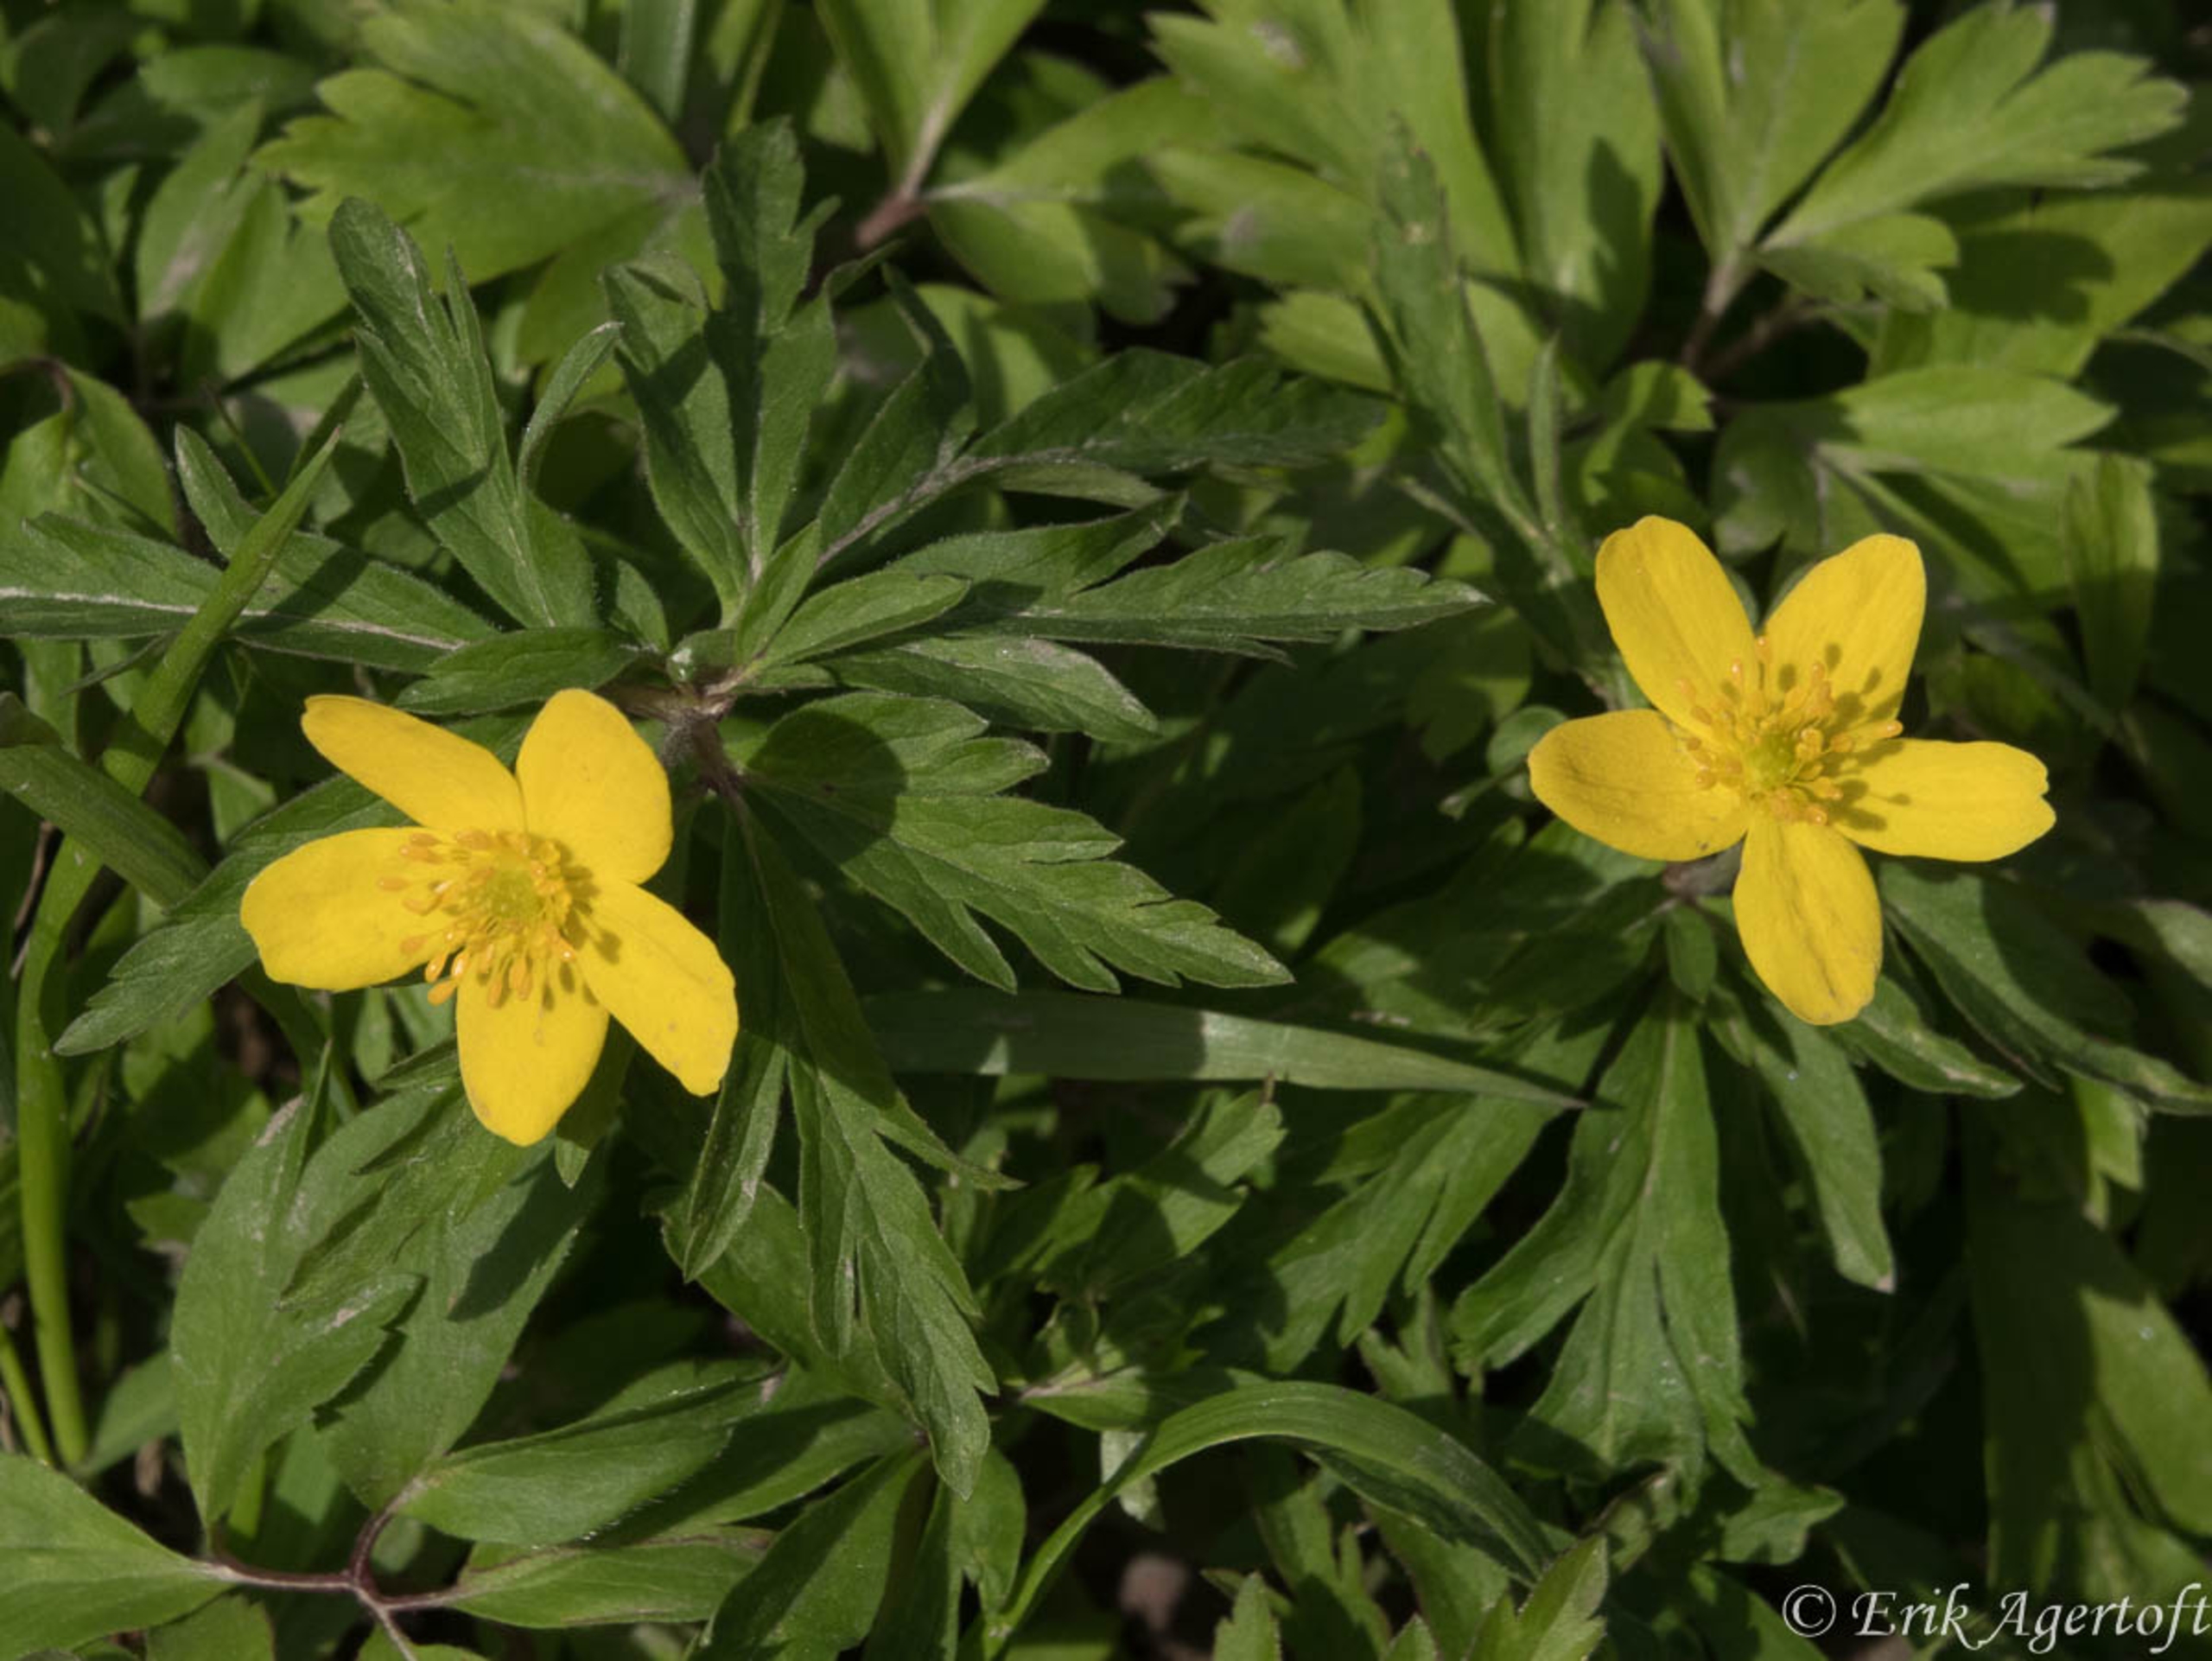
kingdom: Plantae
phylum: Tracheophyta
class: Magnoliopsida
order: Ranunculales
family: Ranunculaceae
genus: Anemone
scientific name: Anemone ranunculoides
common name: Gul anemone
